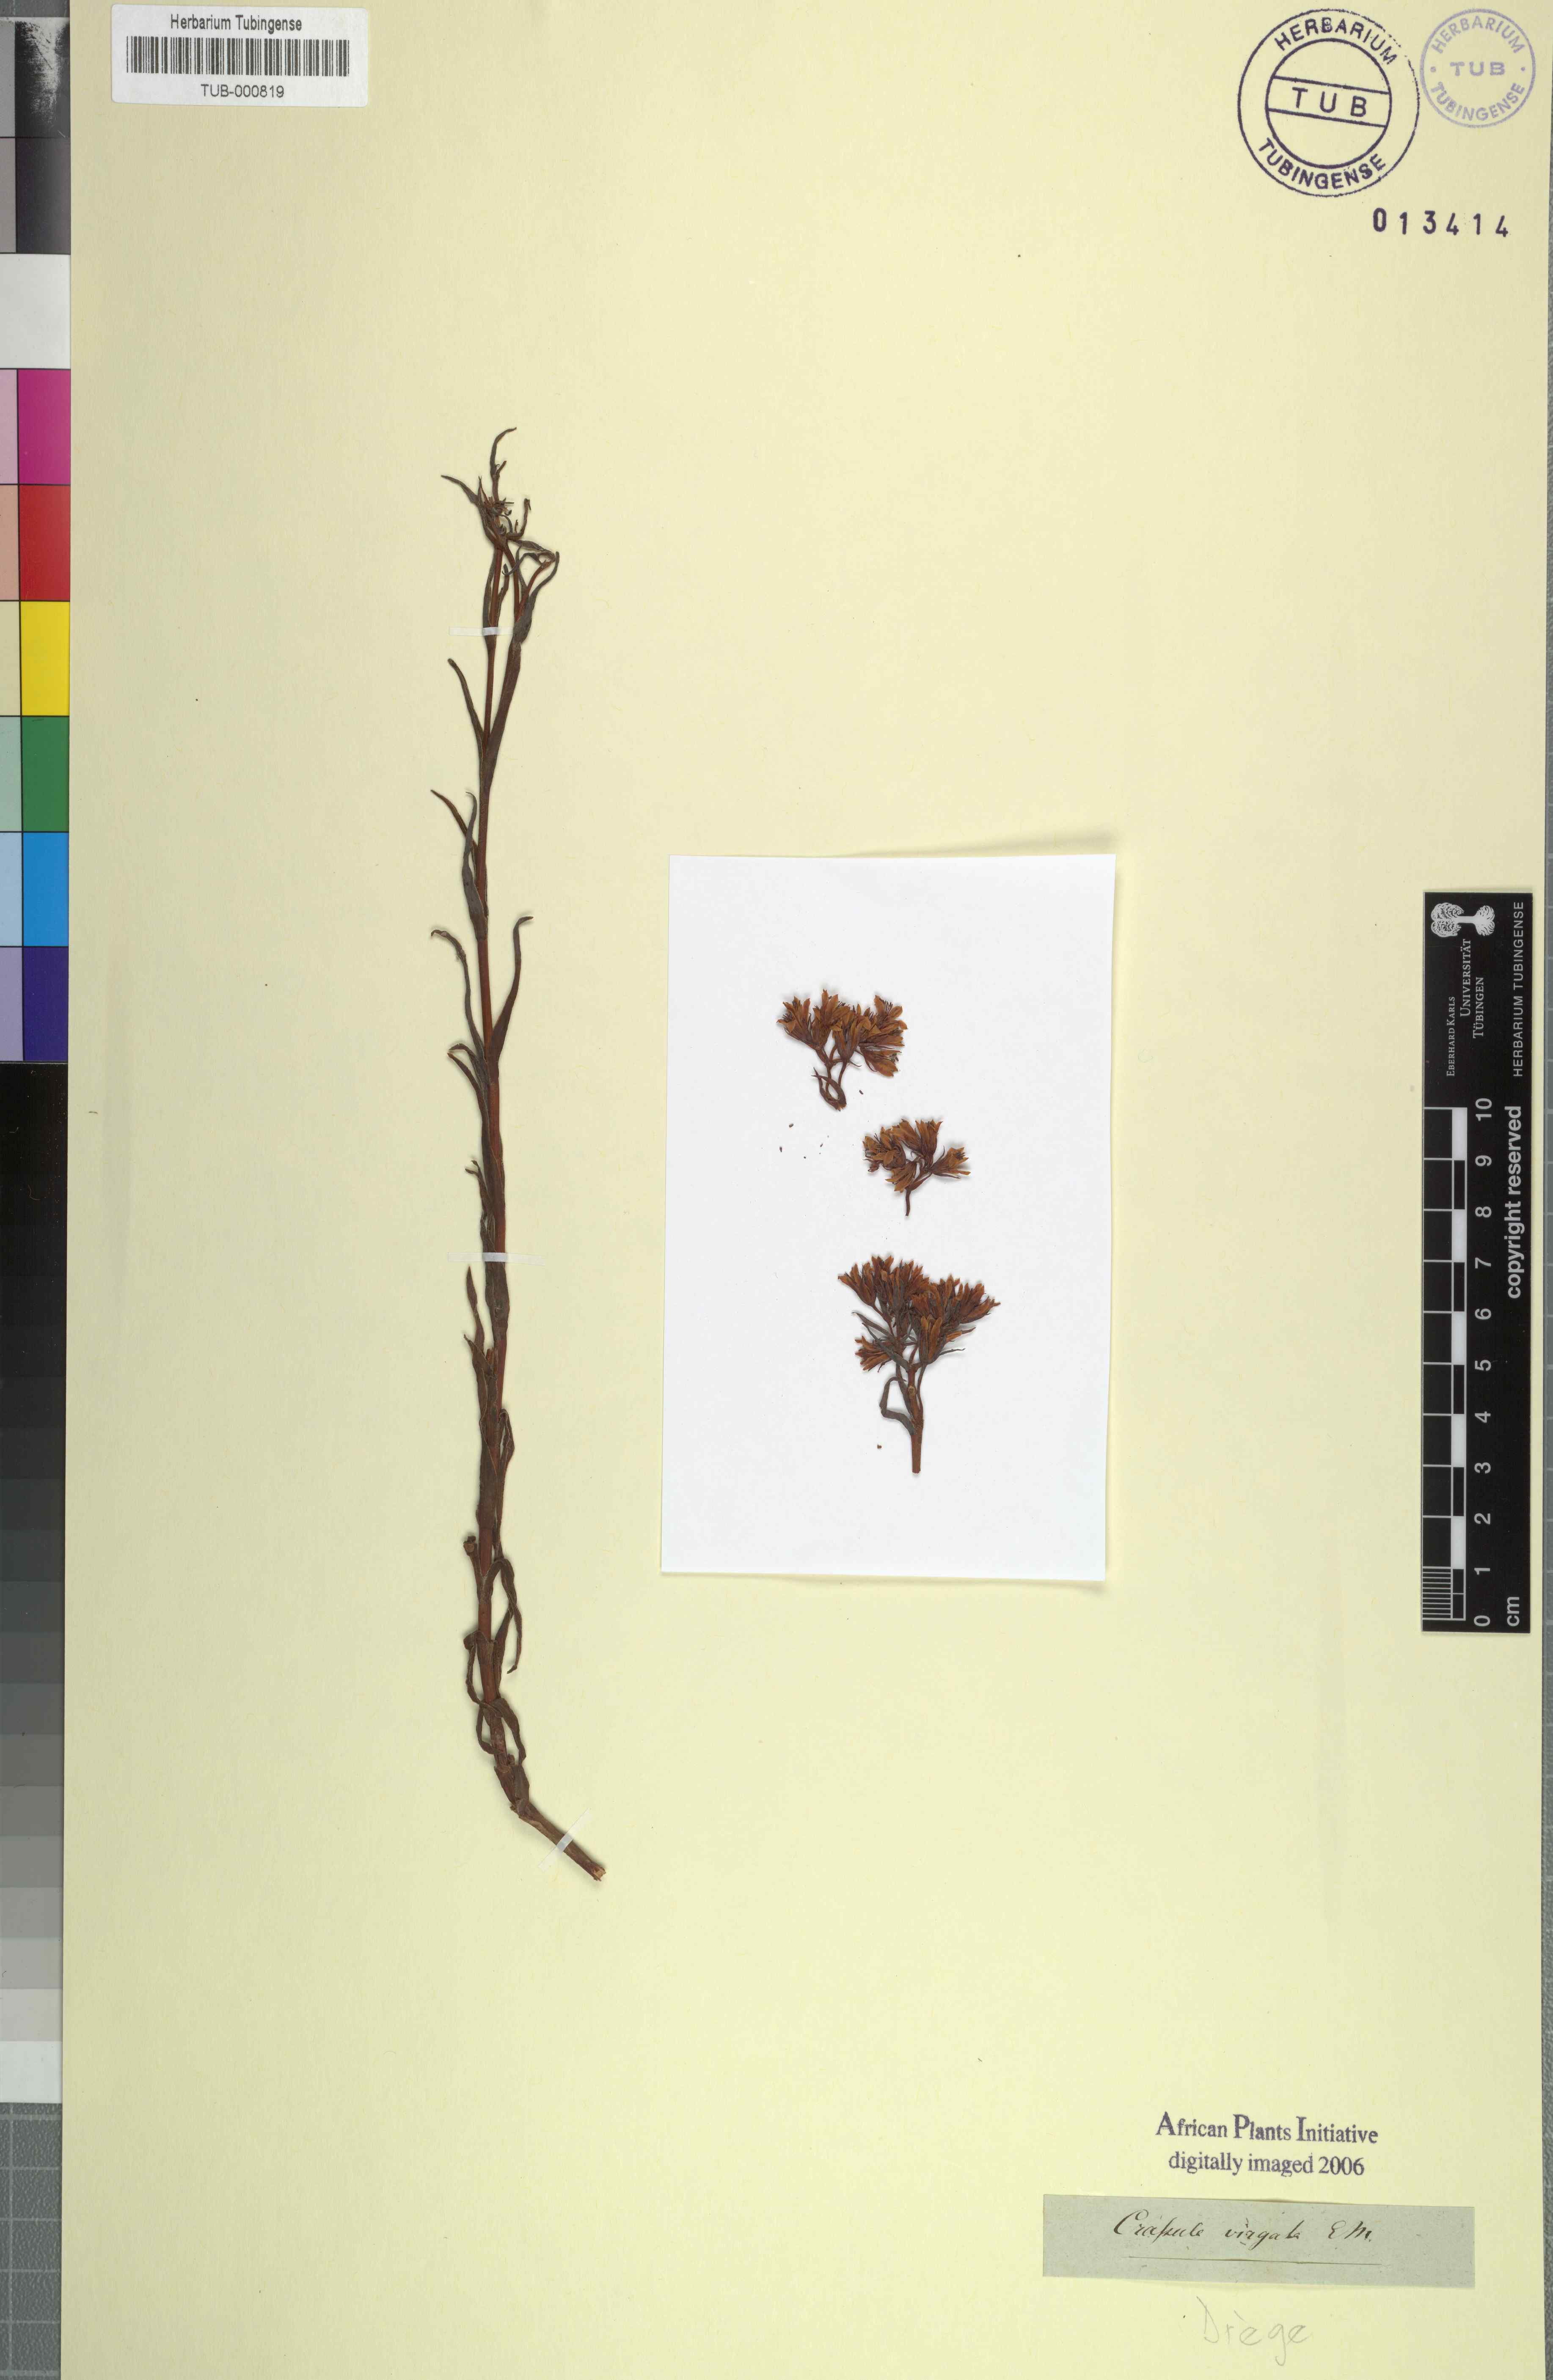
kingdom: Plantae
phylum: Tracheophyta
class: Magnoliopsida
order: Saxifragales
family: Crassulaceae
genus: Crassula
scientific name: Crassula flava
